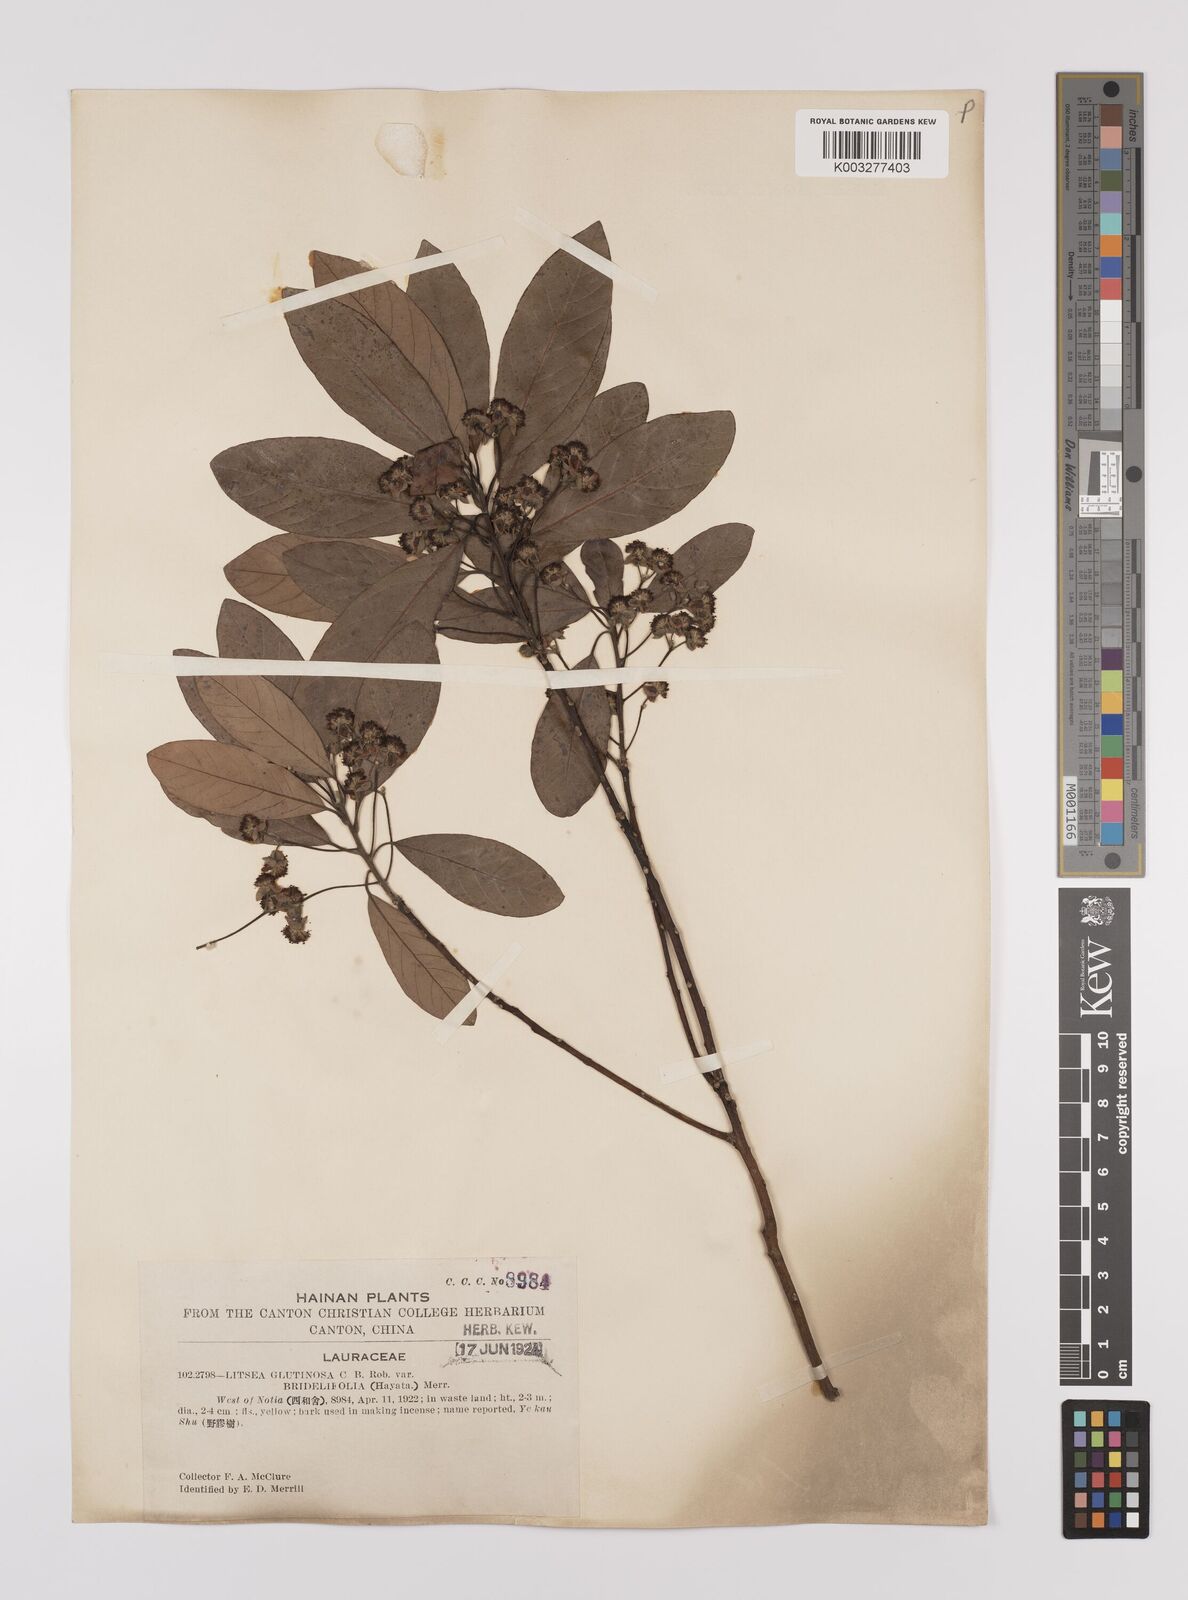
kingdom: Plantae
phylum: Tracheophyta
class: Magnoliopsida
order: Laurales
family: Lauraceae
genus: Litsea
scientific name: Litsea glutinosa
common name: Indian-laurel
